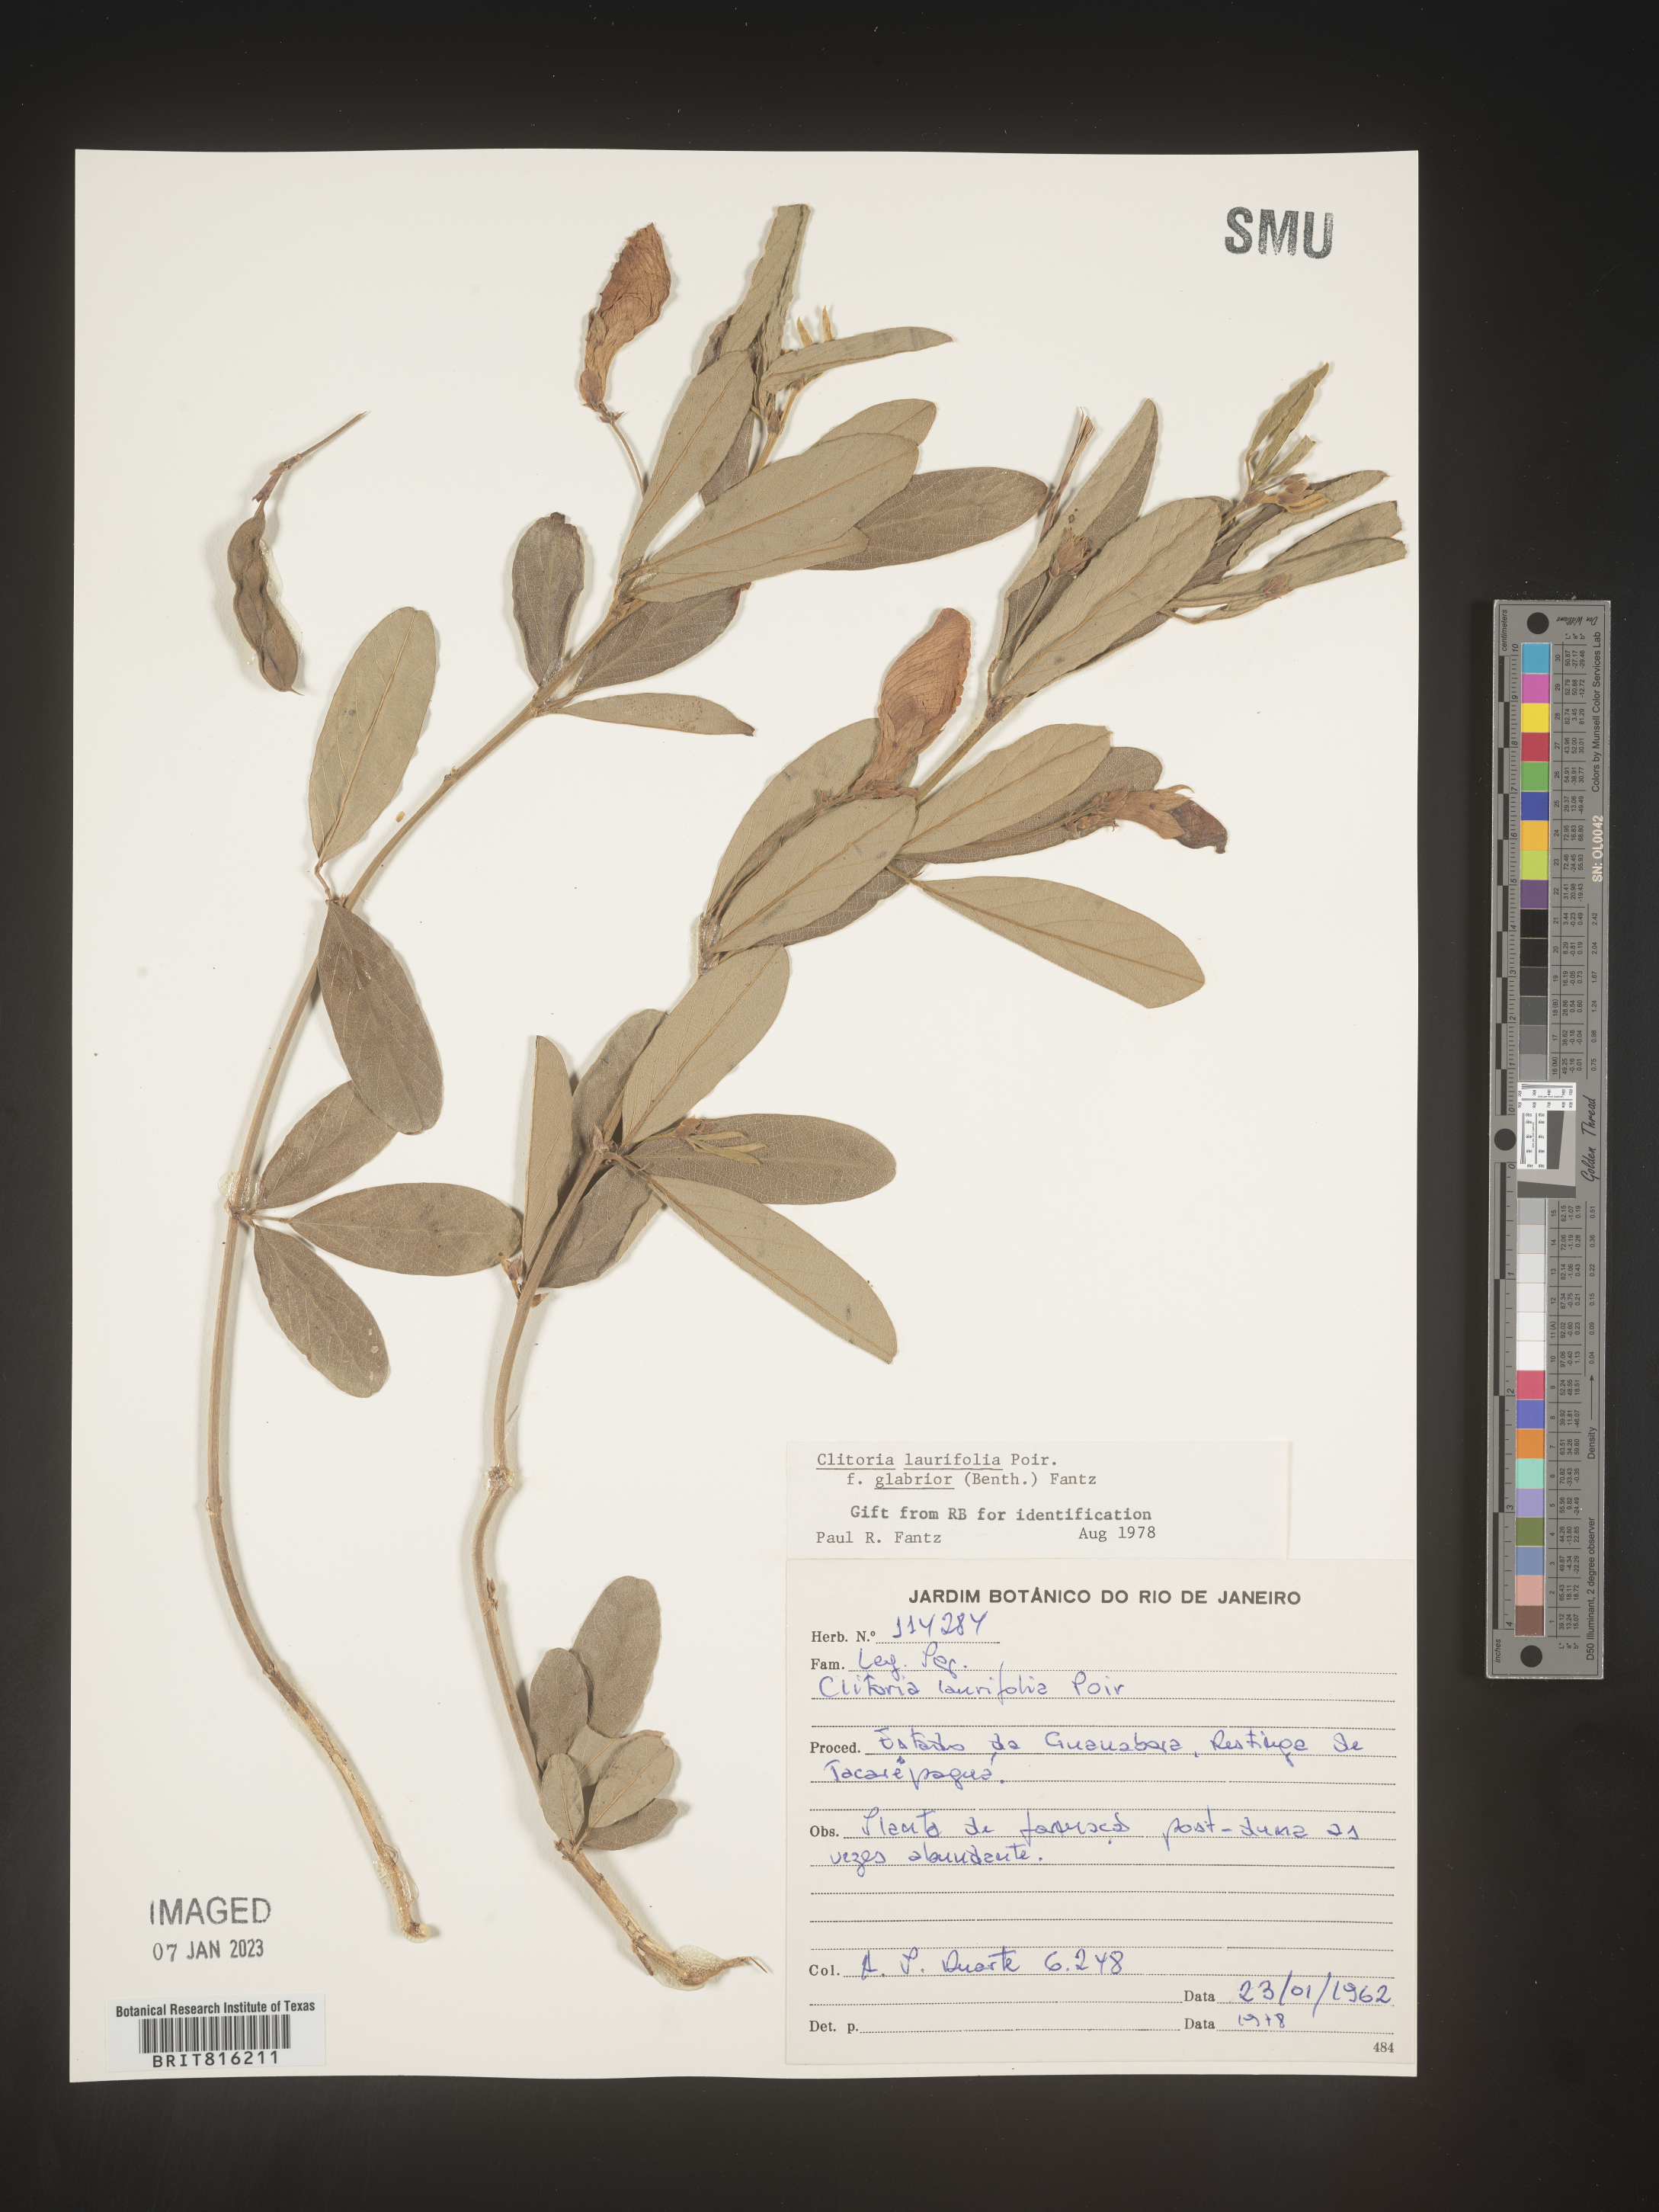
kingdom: Plantae
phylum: Tracheophyta
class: Magnoliopsida
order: Fabales
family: Fabaceae
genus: Clitoria
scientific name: Clitoria
